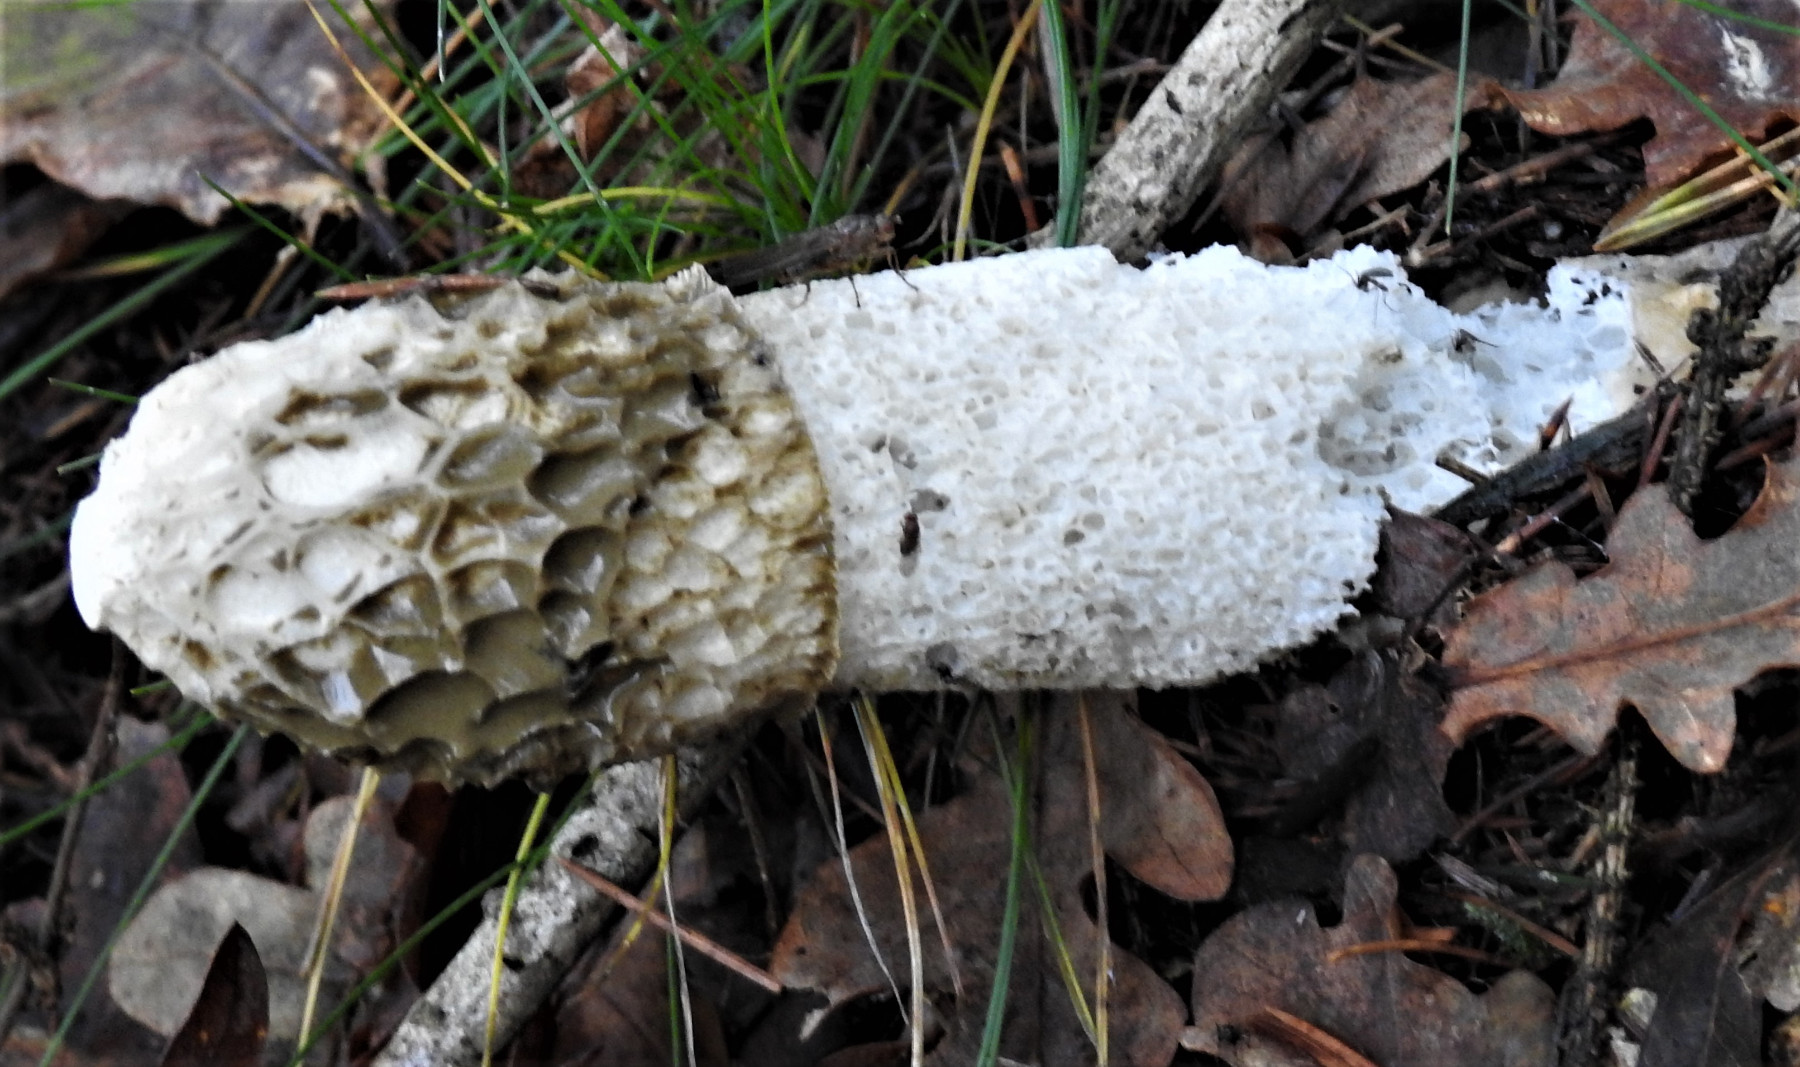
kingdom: Fungi
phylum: Basidiomycota
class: Agaricomycetes
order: Phallales
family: Phallaceae
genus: Phallus
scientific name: Phallus impudicus
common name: almindelig stinksvamp
